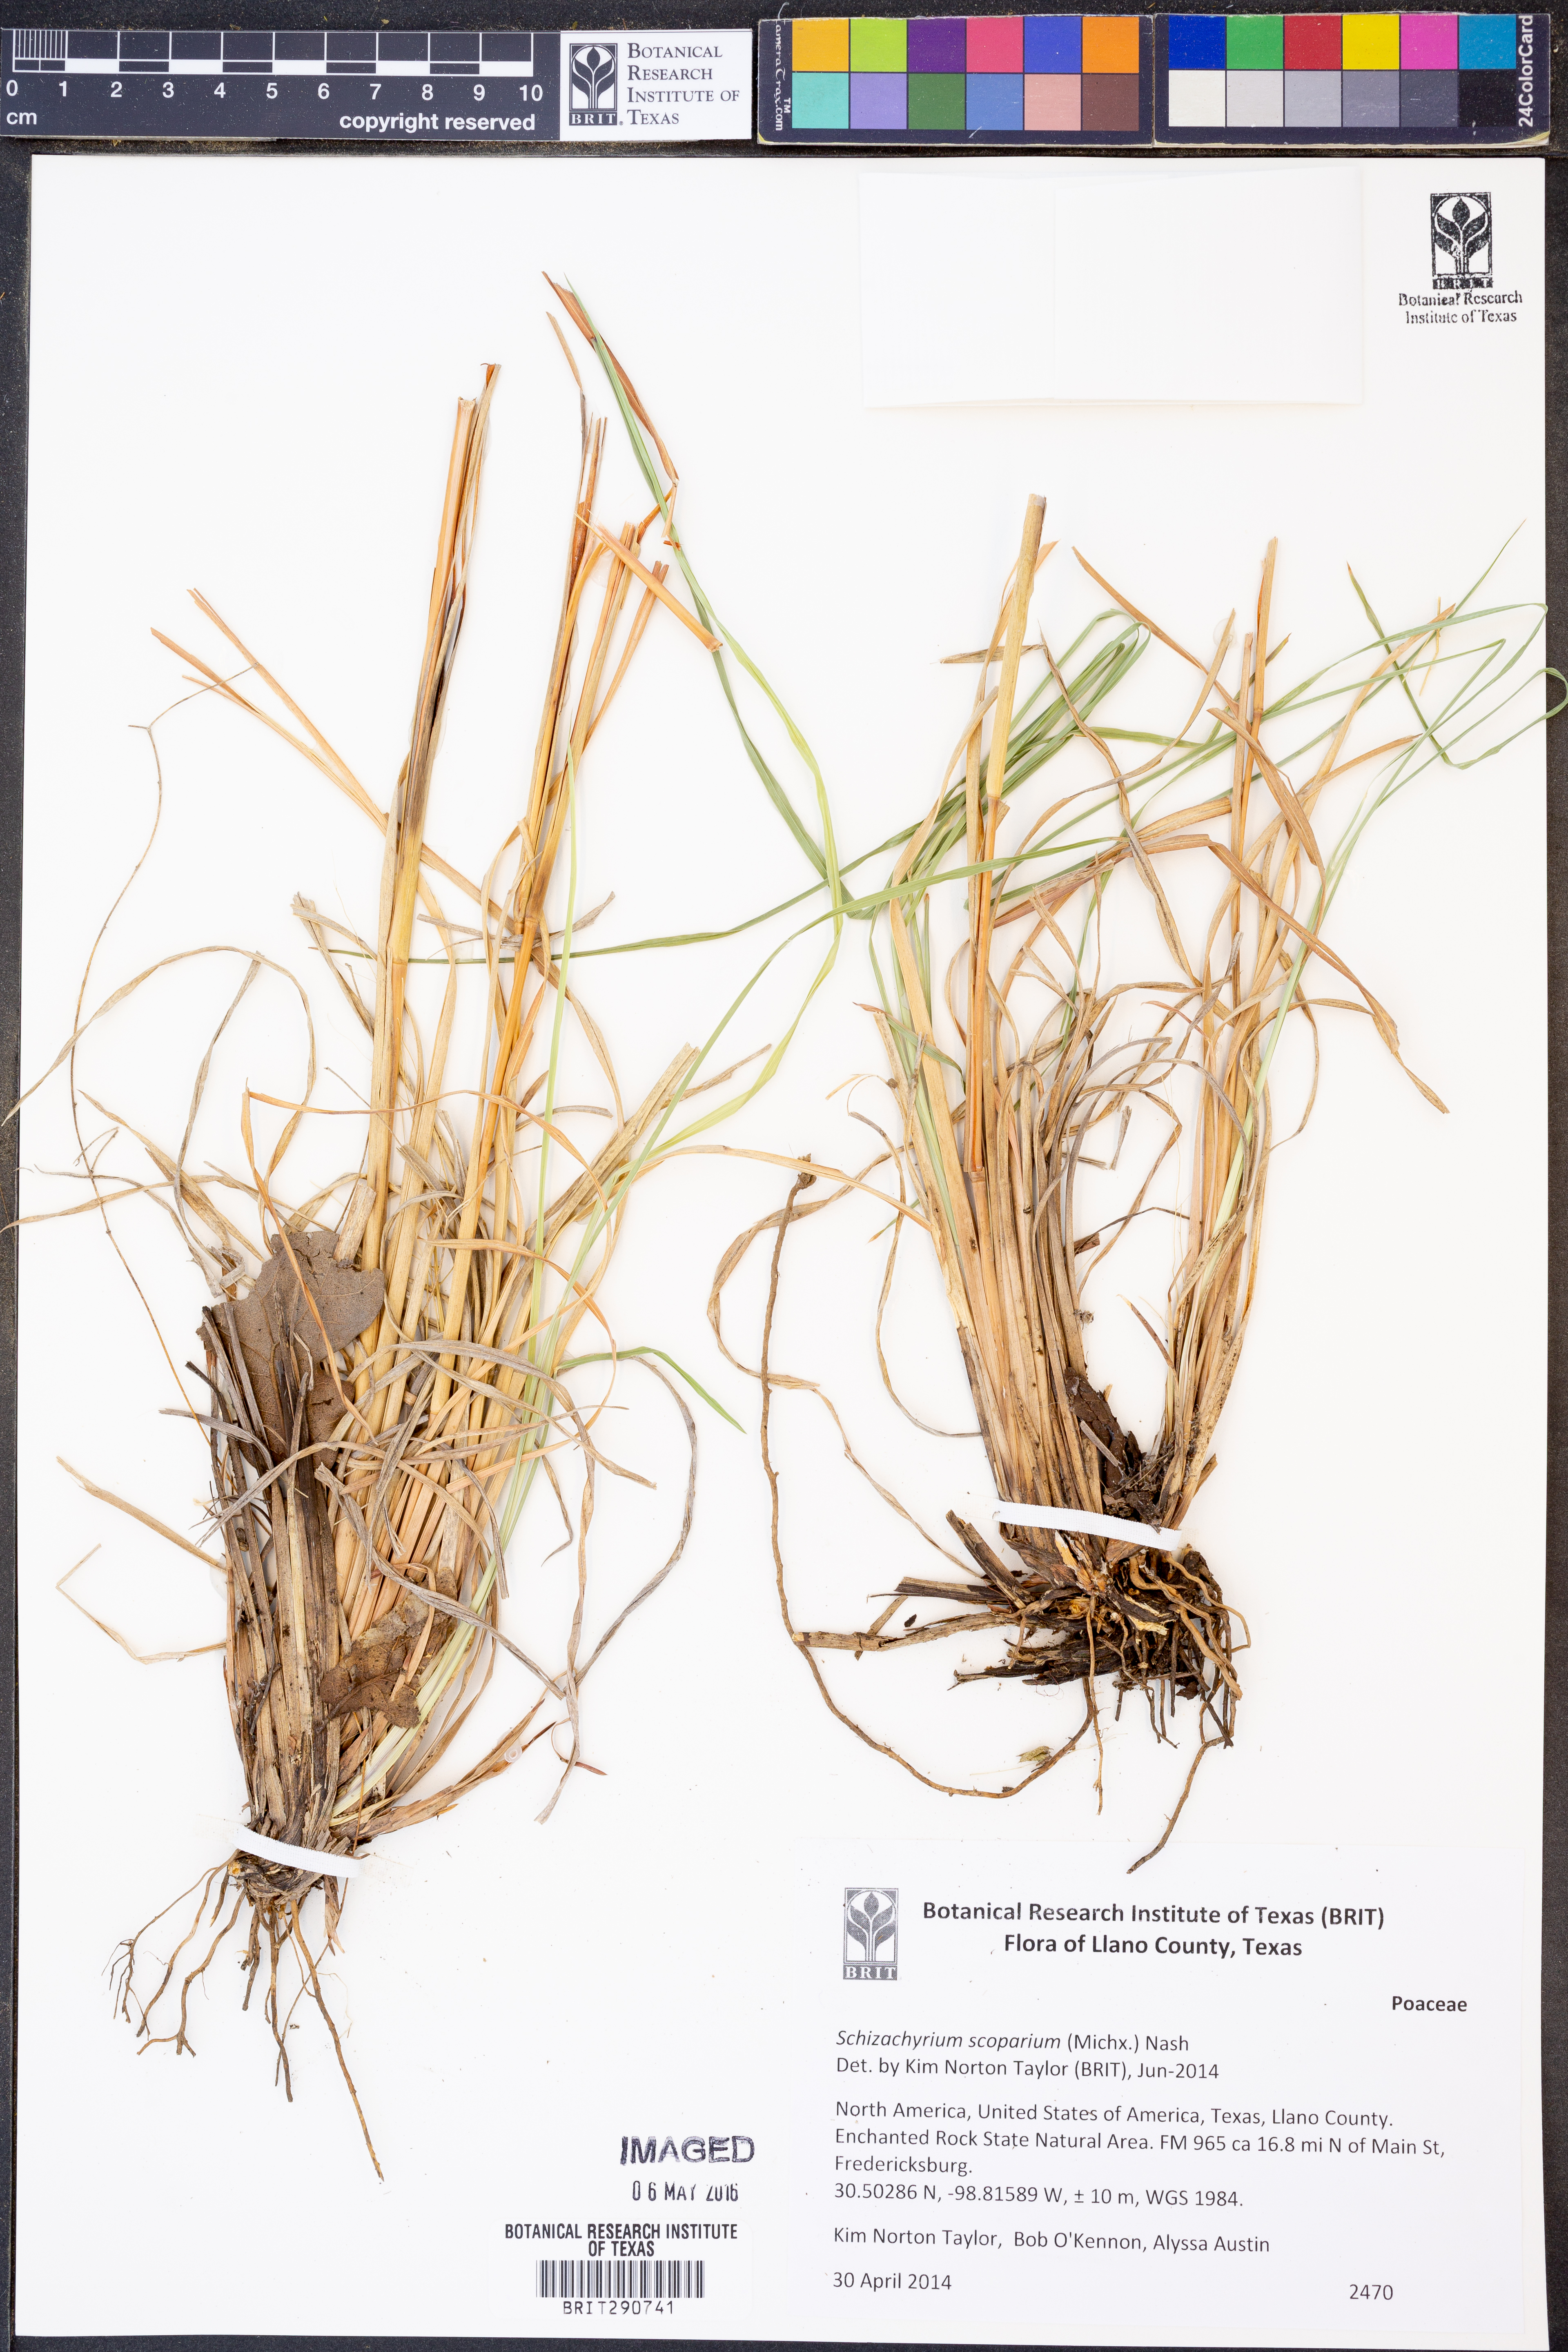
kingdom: Plantae
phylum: Tracheophyta
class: Liliopsida
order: Poales
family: Poaceae
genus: Schizachyrium
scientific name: Schizachyrium scoparium
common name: Little bluestem
